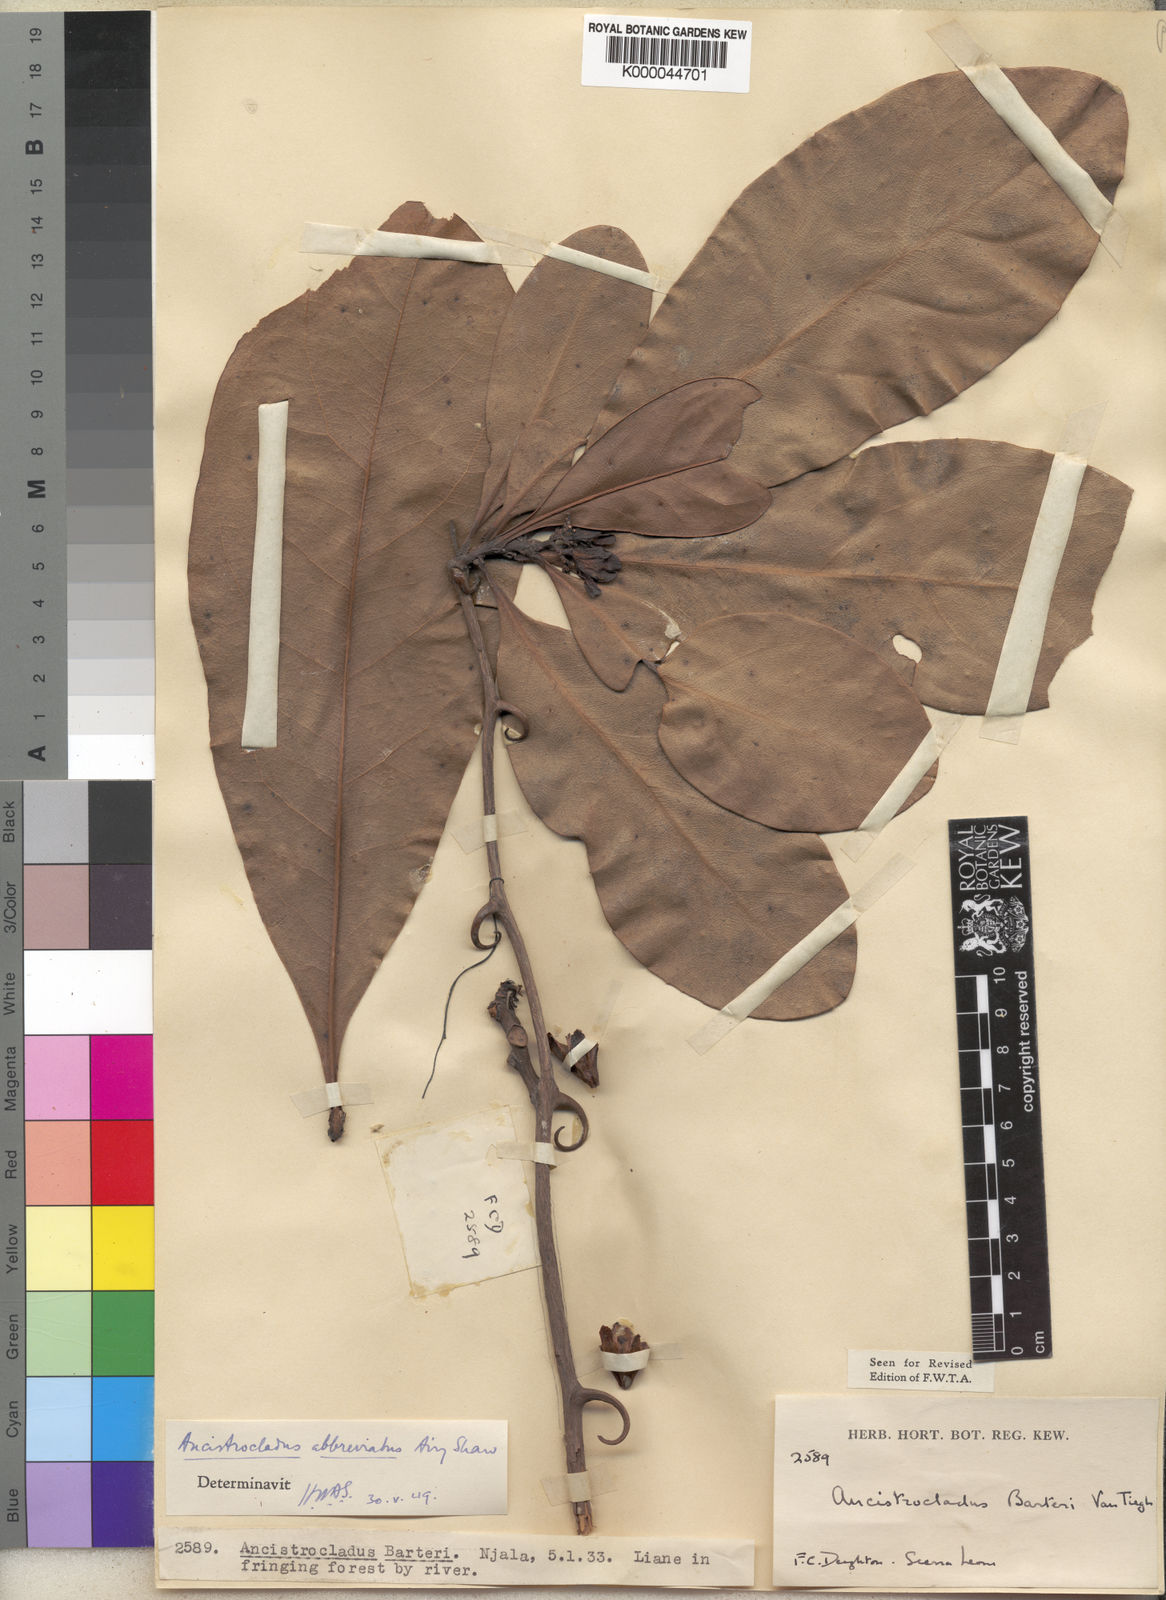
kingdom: Plantae
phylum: Tracheophyta
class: Magnoliopsida
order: Caryophyllales
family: Ancistrocladaceae
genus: Ancistrocladus
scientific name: Ancistrocladus abbreviatus
